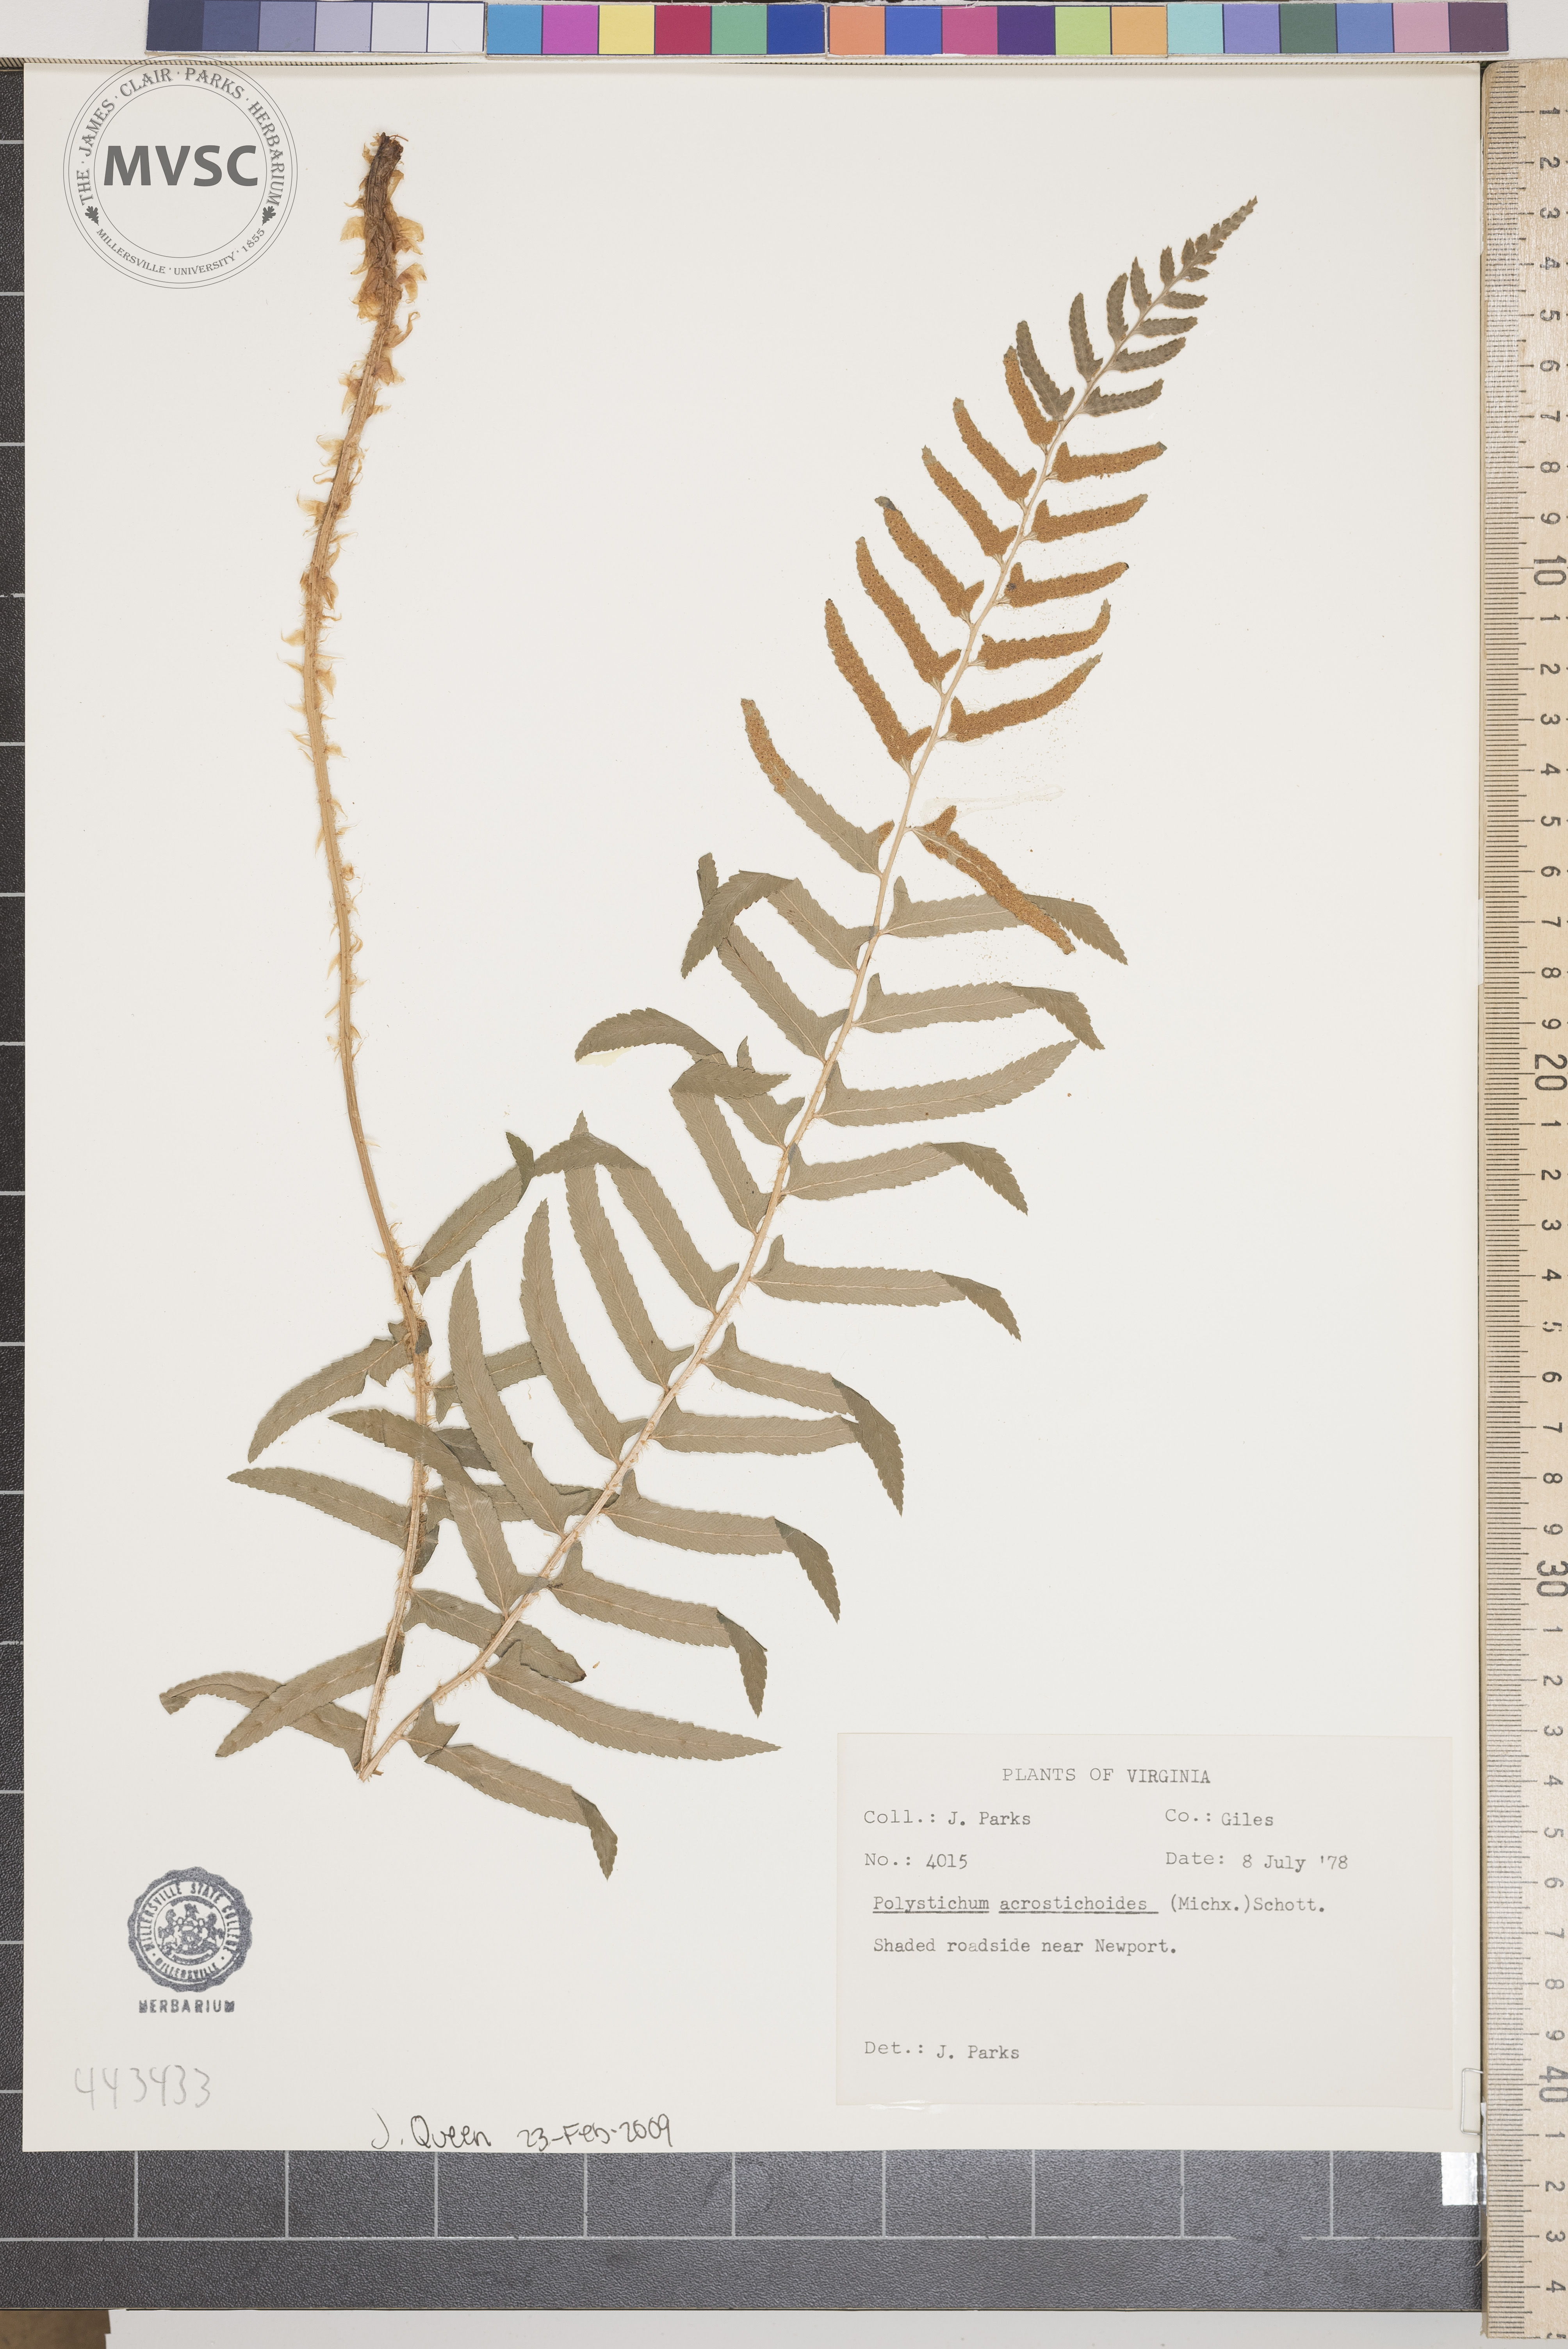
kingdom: Plantae
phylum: Tracheophyta
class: Polypodiopsida
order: Polypodiales
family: Dryopteridaceae
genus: Polystichum
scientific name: Polystichum acrostichoides
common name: Christmas fern
